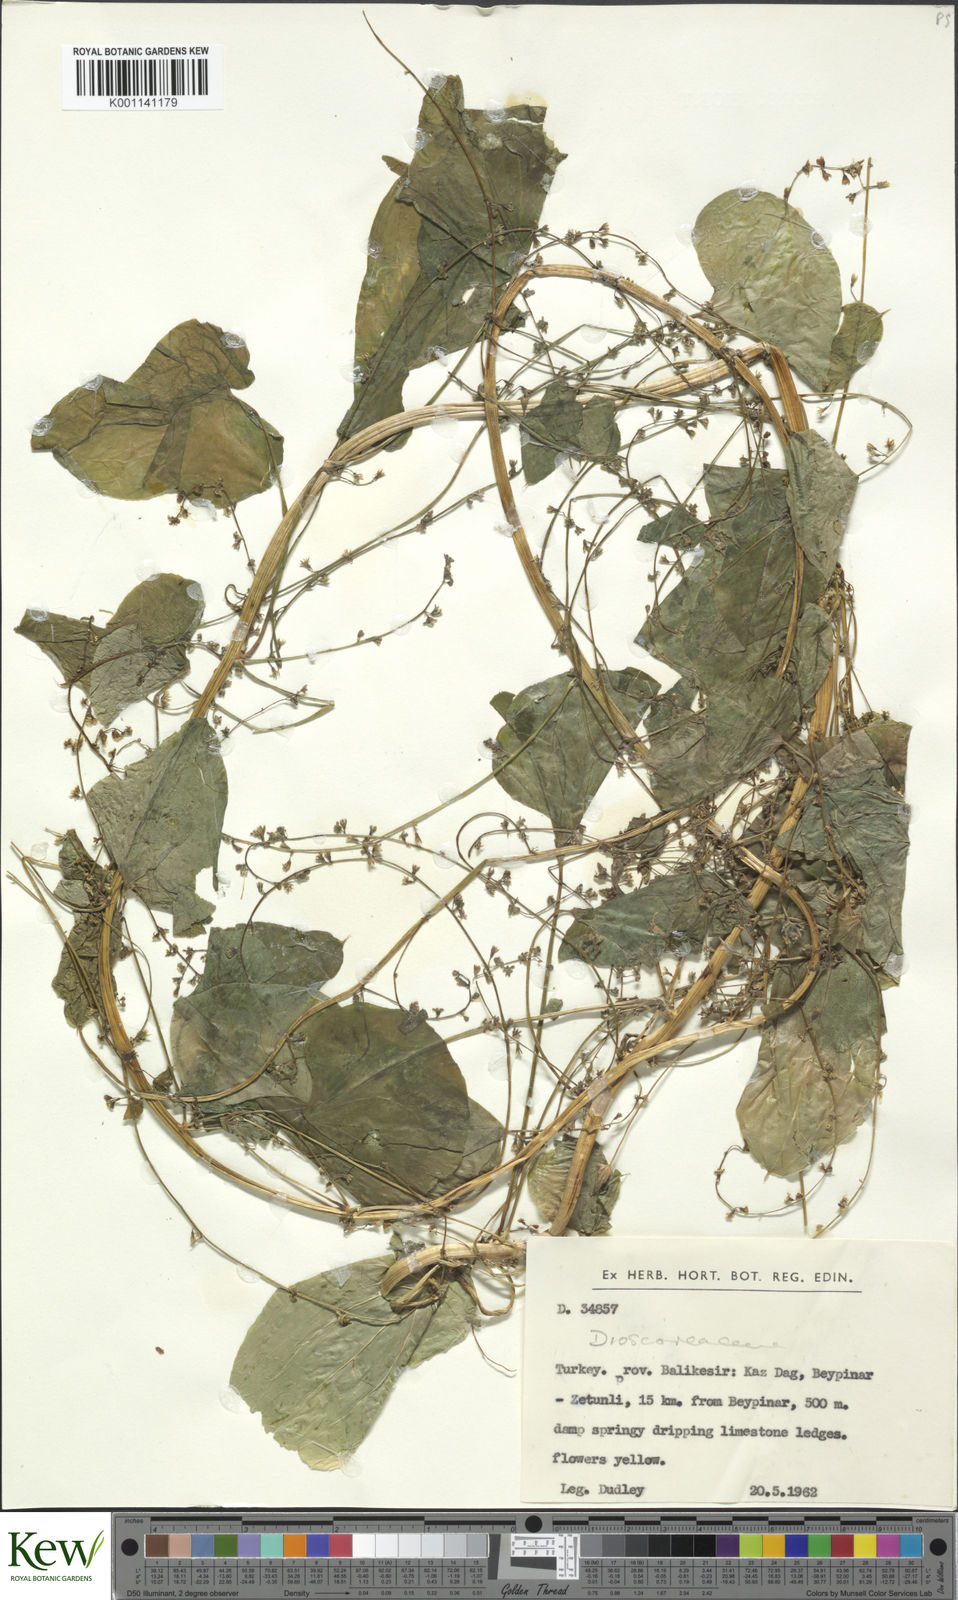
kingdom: Plantae
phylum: Tracheophyta
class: Liliopsida
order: Dioscoreales
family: Dioscoreaceae
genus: Dioscorea
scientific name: Dioscorea communis
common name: Black-bindweed
